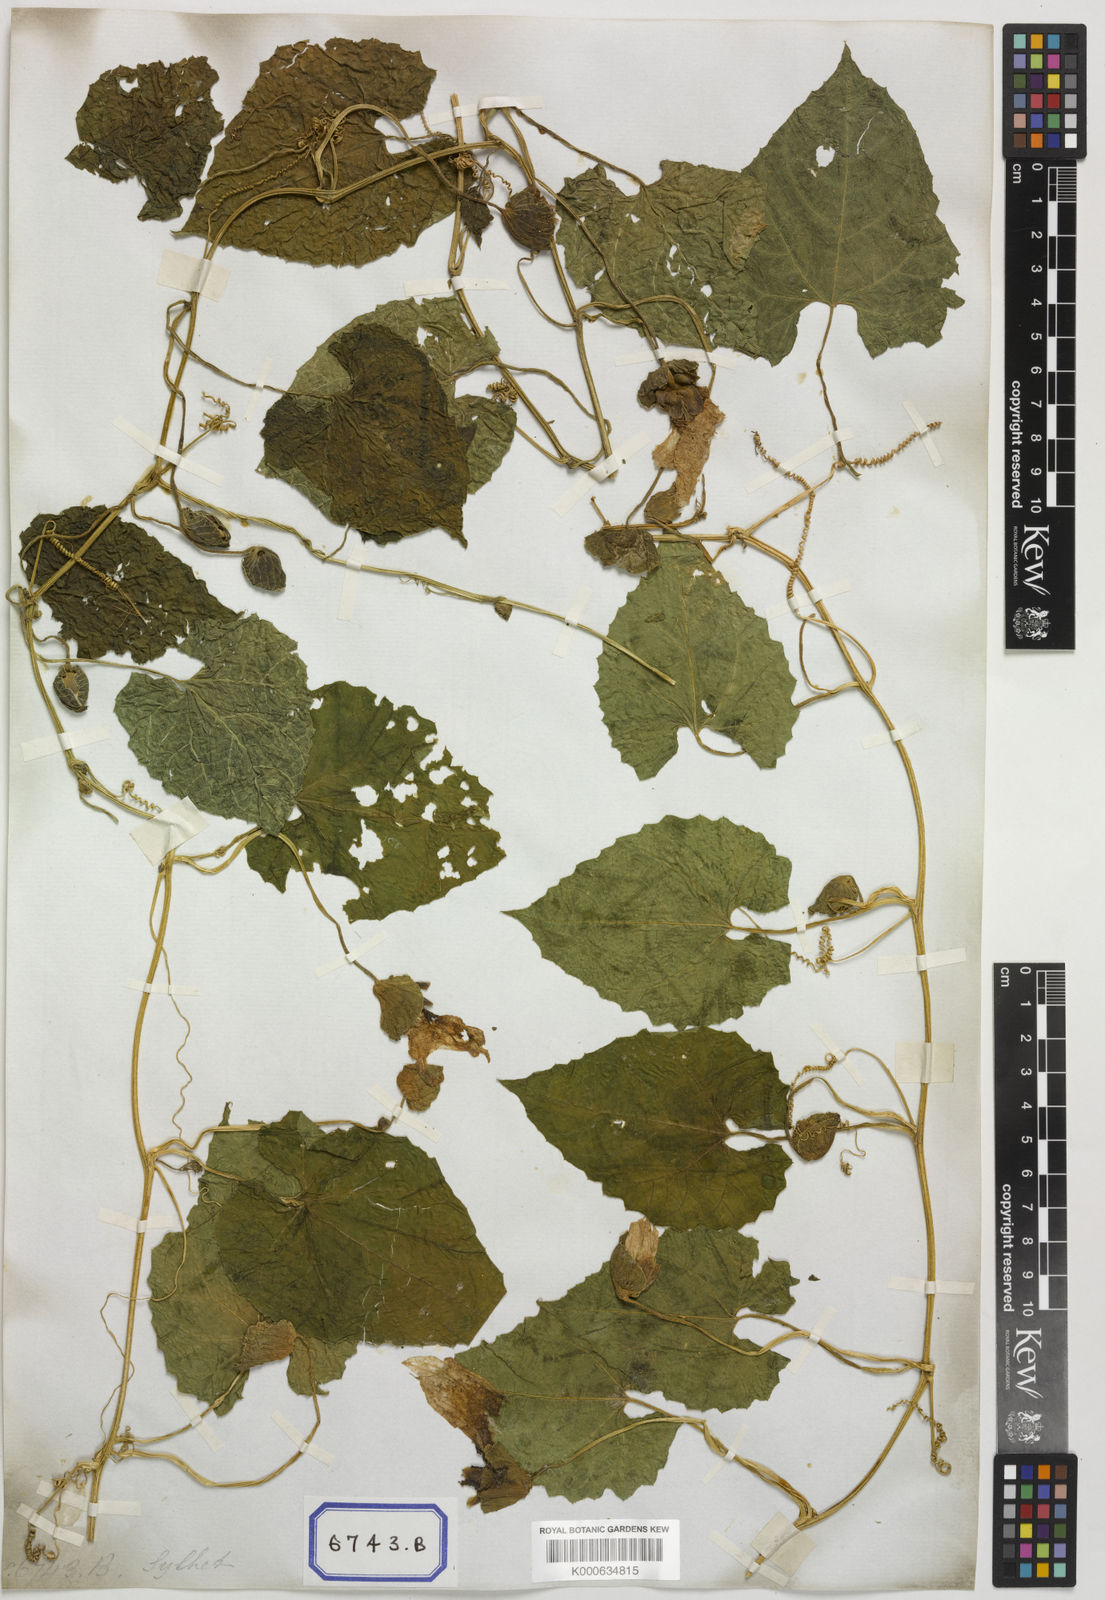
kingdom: Plantae
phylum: Tracheophyta
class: Magnoliopsida
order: Cucurbitales
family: Cucurbitaceae
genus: Momordica
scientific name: Momordica subangulata
